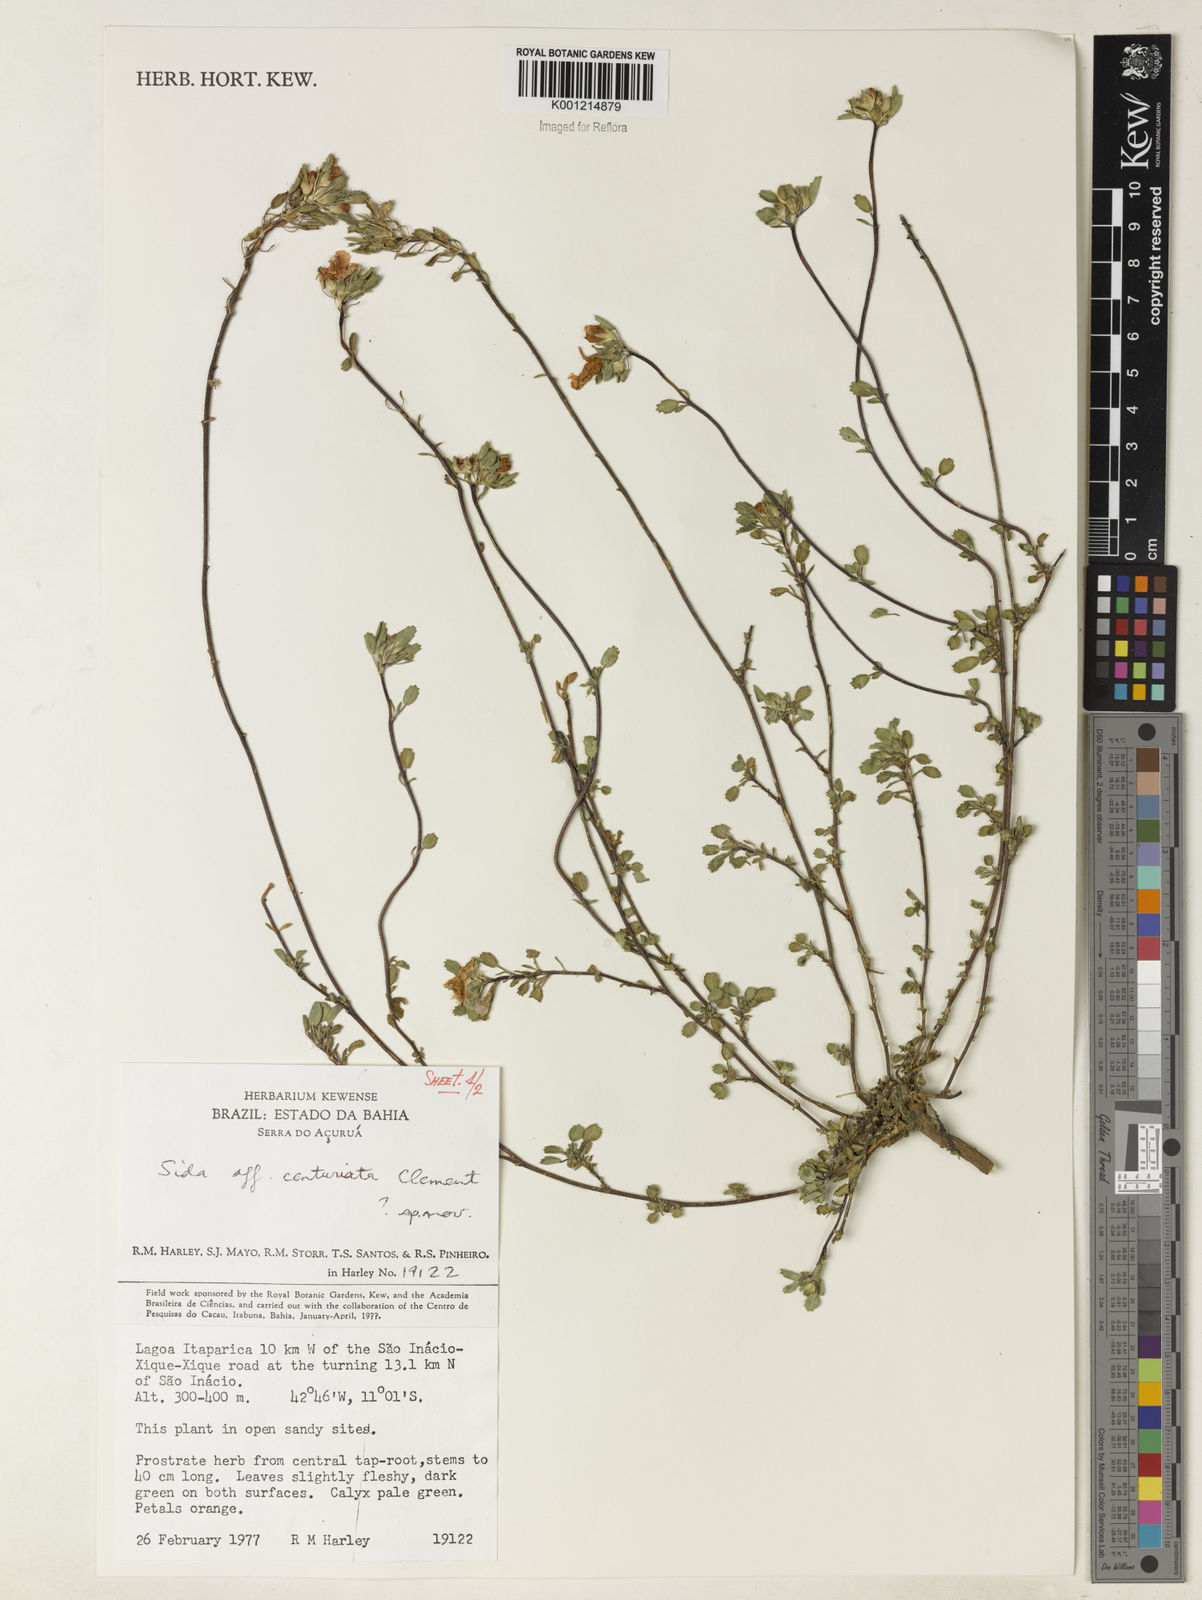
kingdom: Plantae
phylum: Tracheophyta
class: Magnoliopsida
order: Malvales
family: Malvaceae
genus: Sida
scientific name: Sida centuriata
